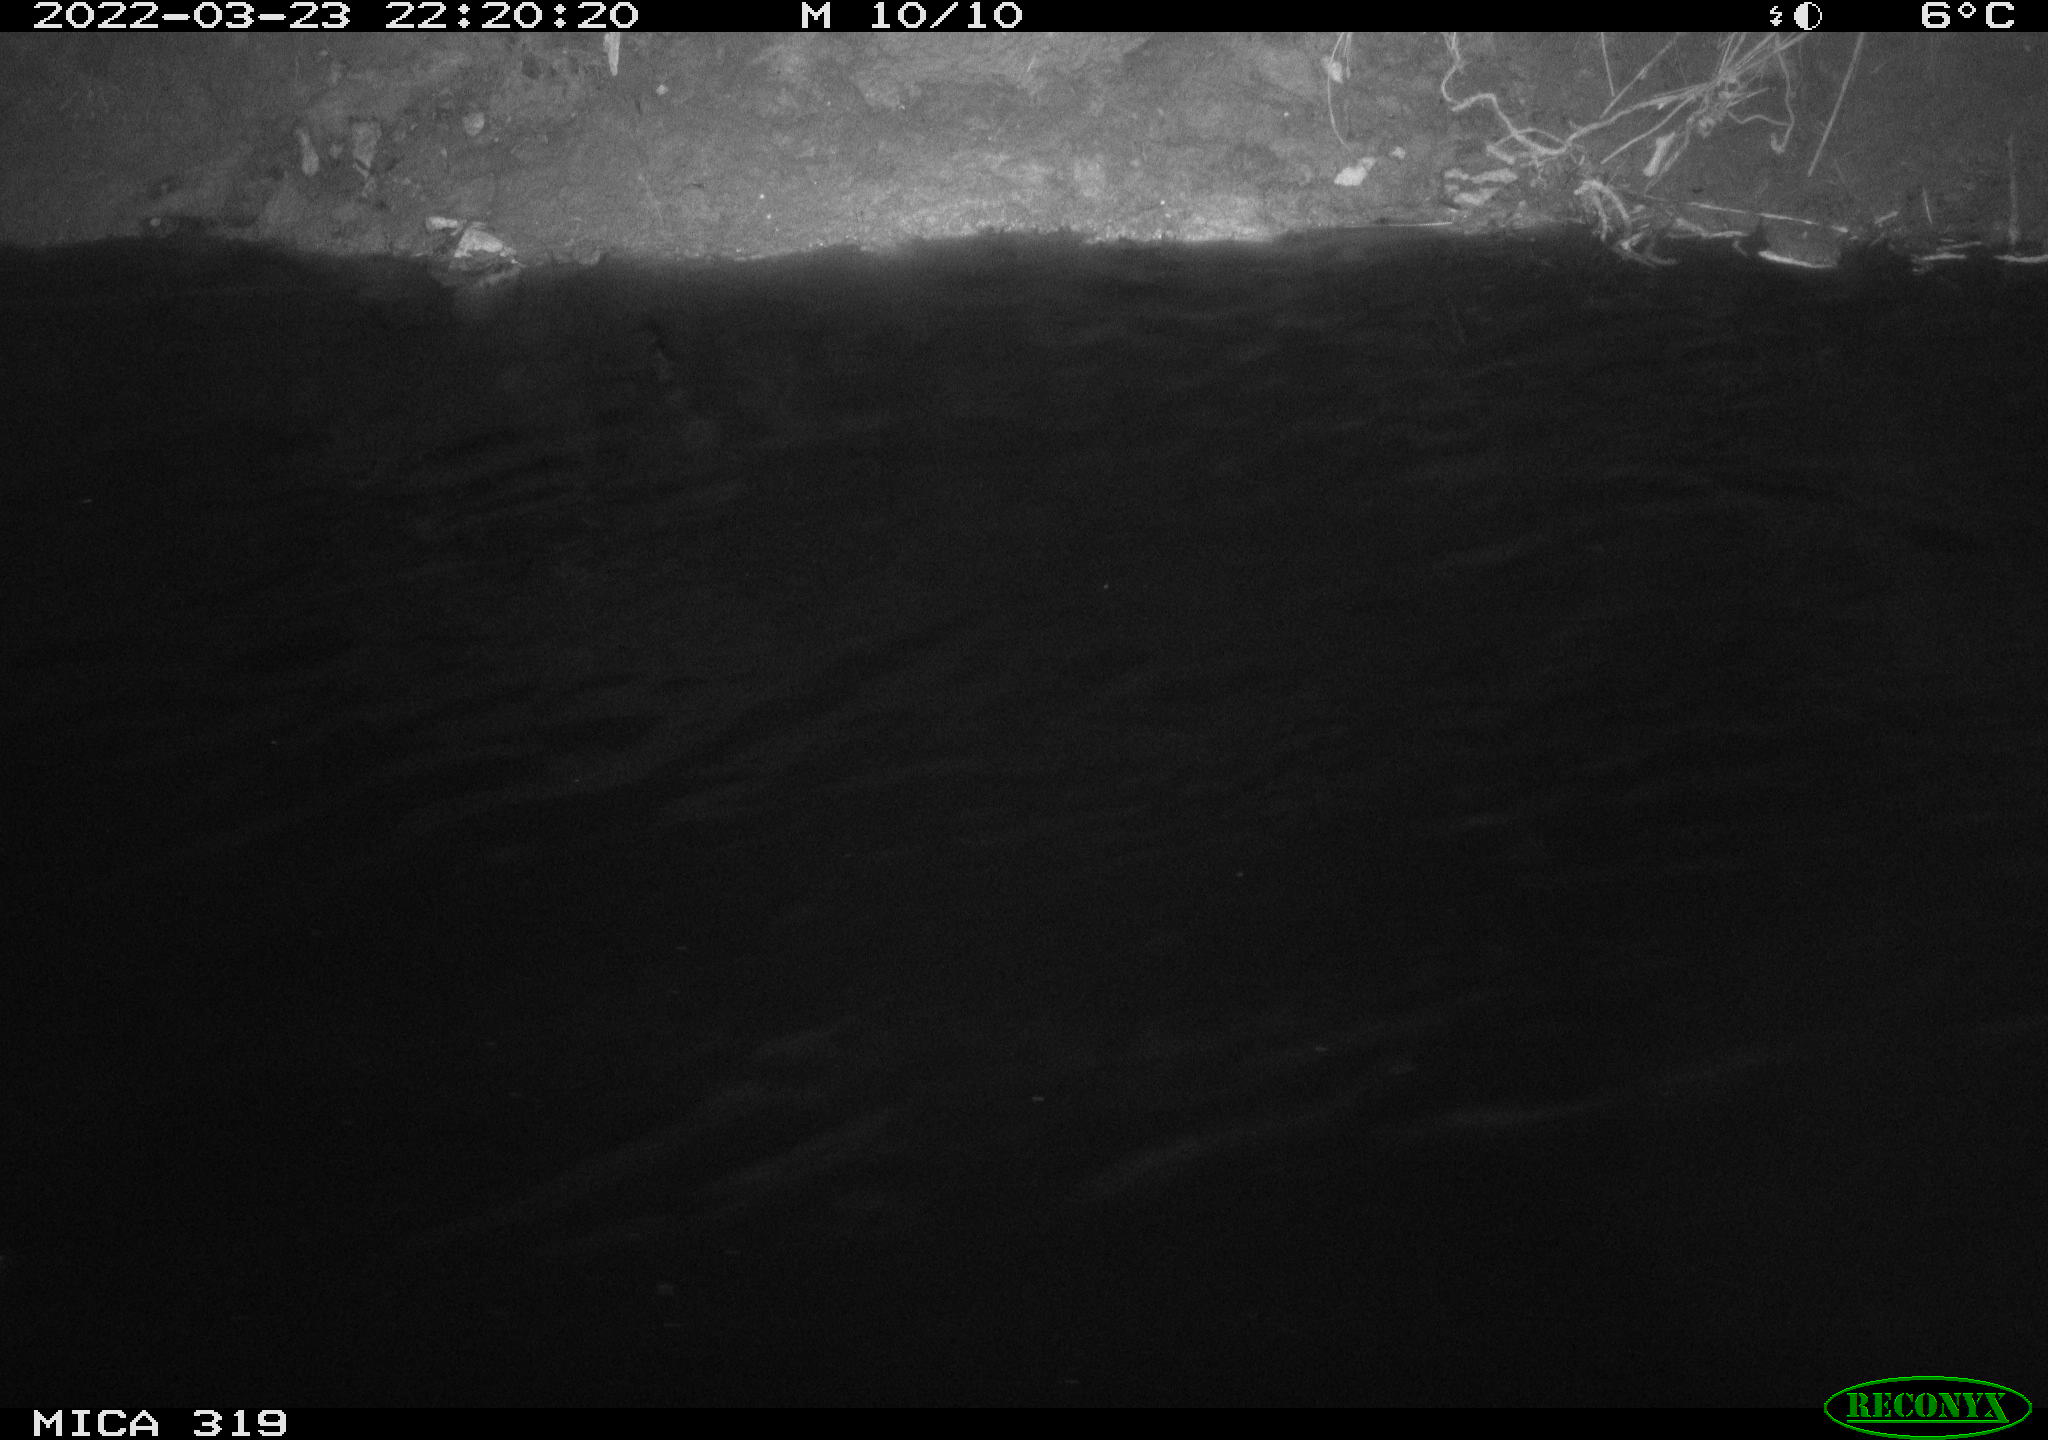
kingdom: Animalia
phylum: Chordata
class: Aves
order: Anseriformes
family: Anatidae
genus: Anas
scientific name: Anas platyrhynchos
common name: Mallard
